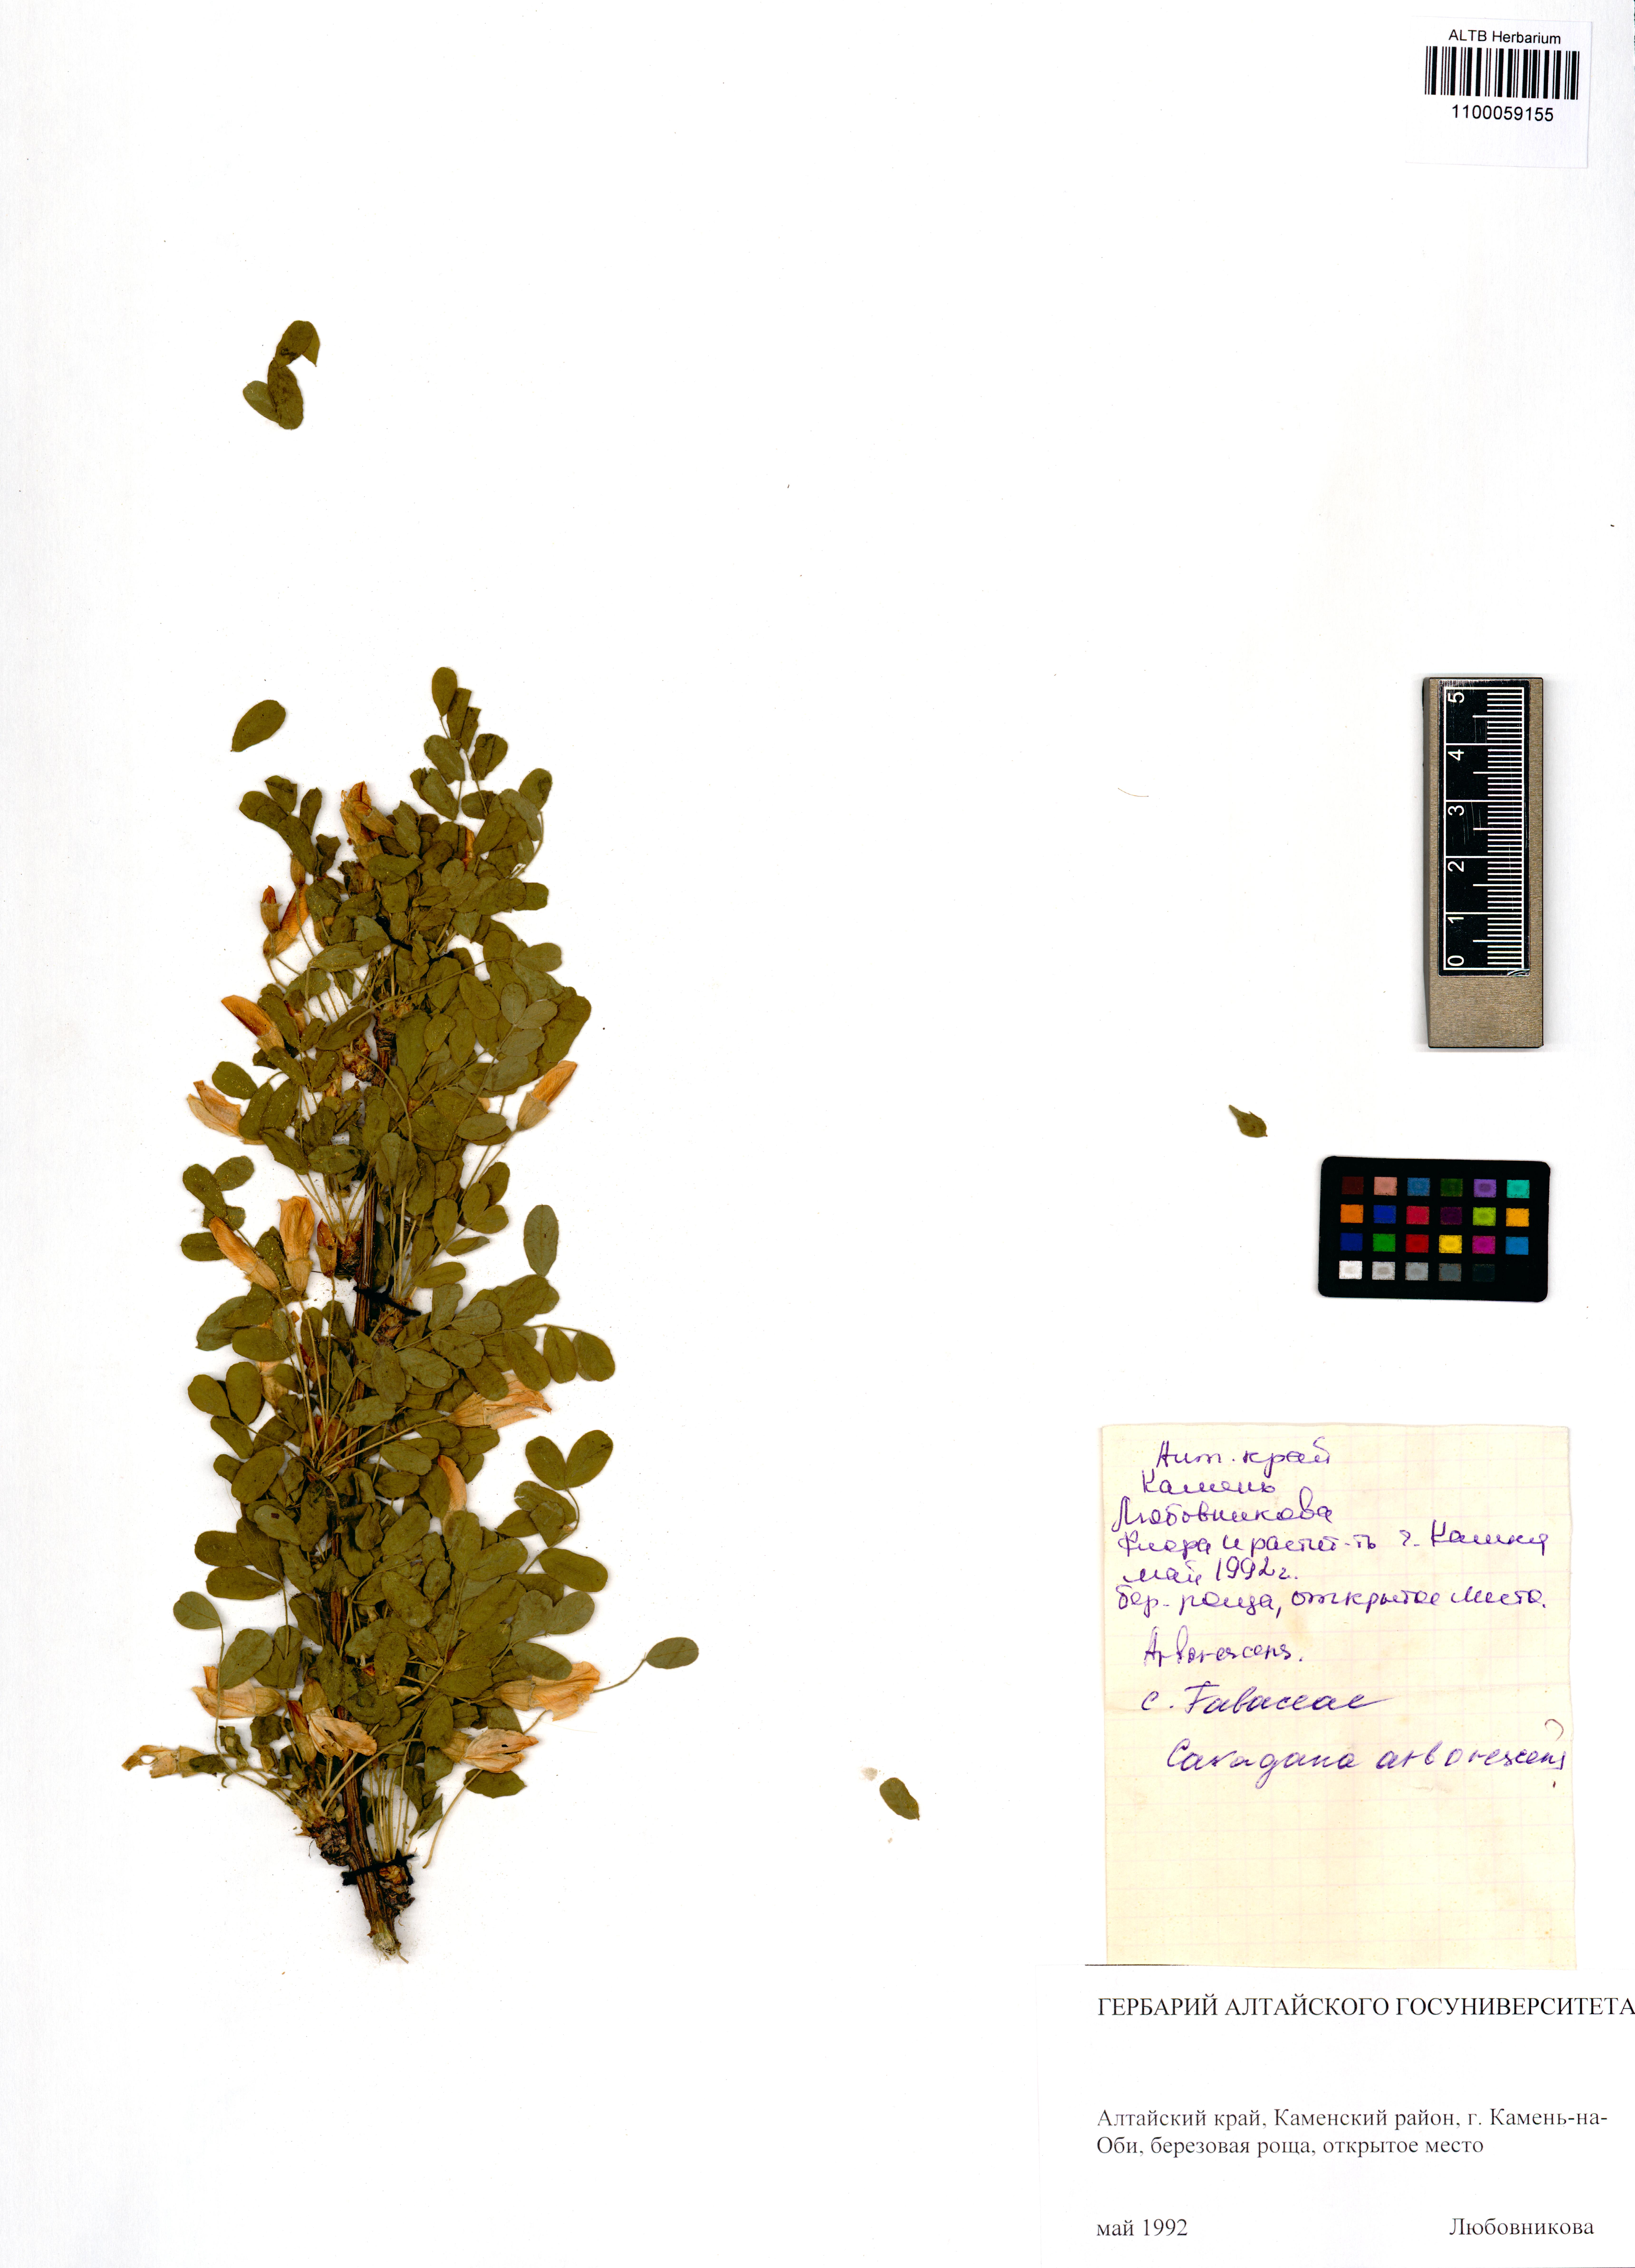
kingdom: Plantae
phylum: Tracheophyta
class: Magnoliopsida
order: Fabales
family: Fabaceae
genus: Caragana
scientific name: Caragana arborescens
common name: Siberian peashrub
